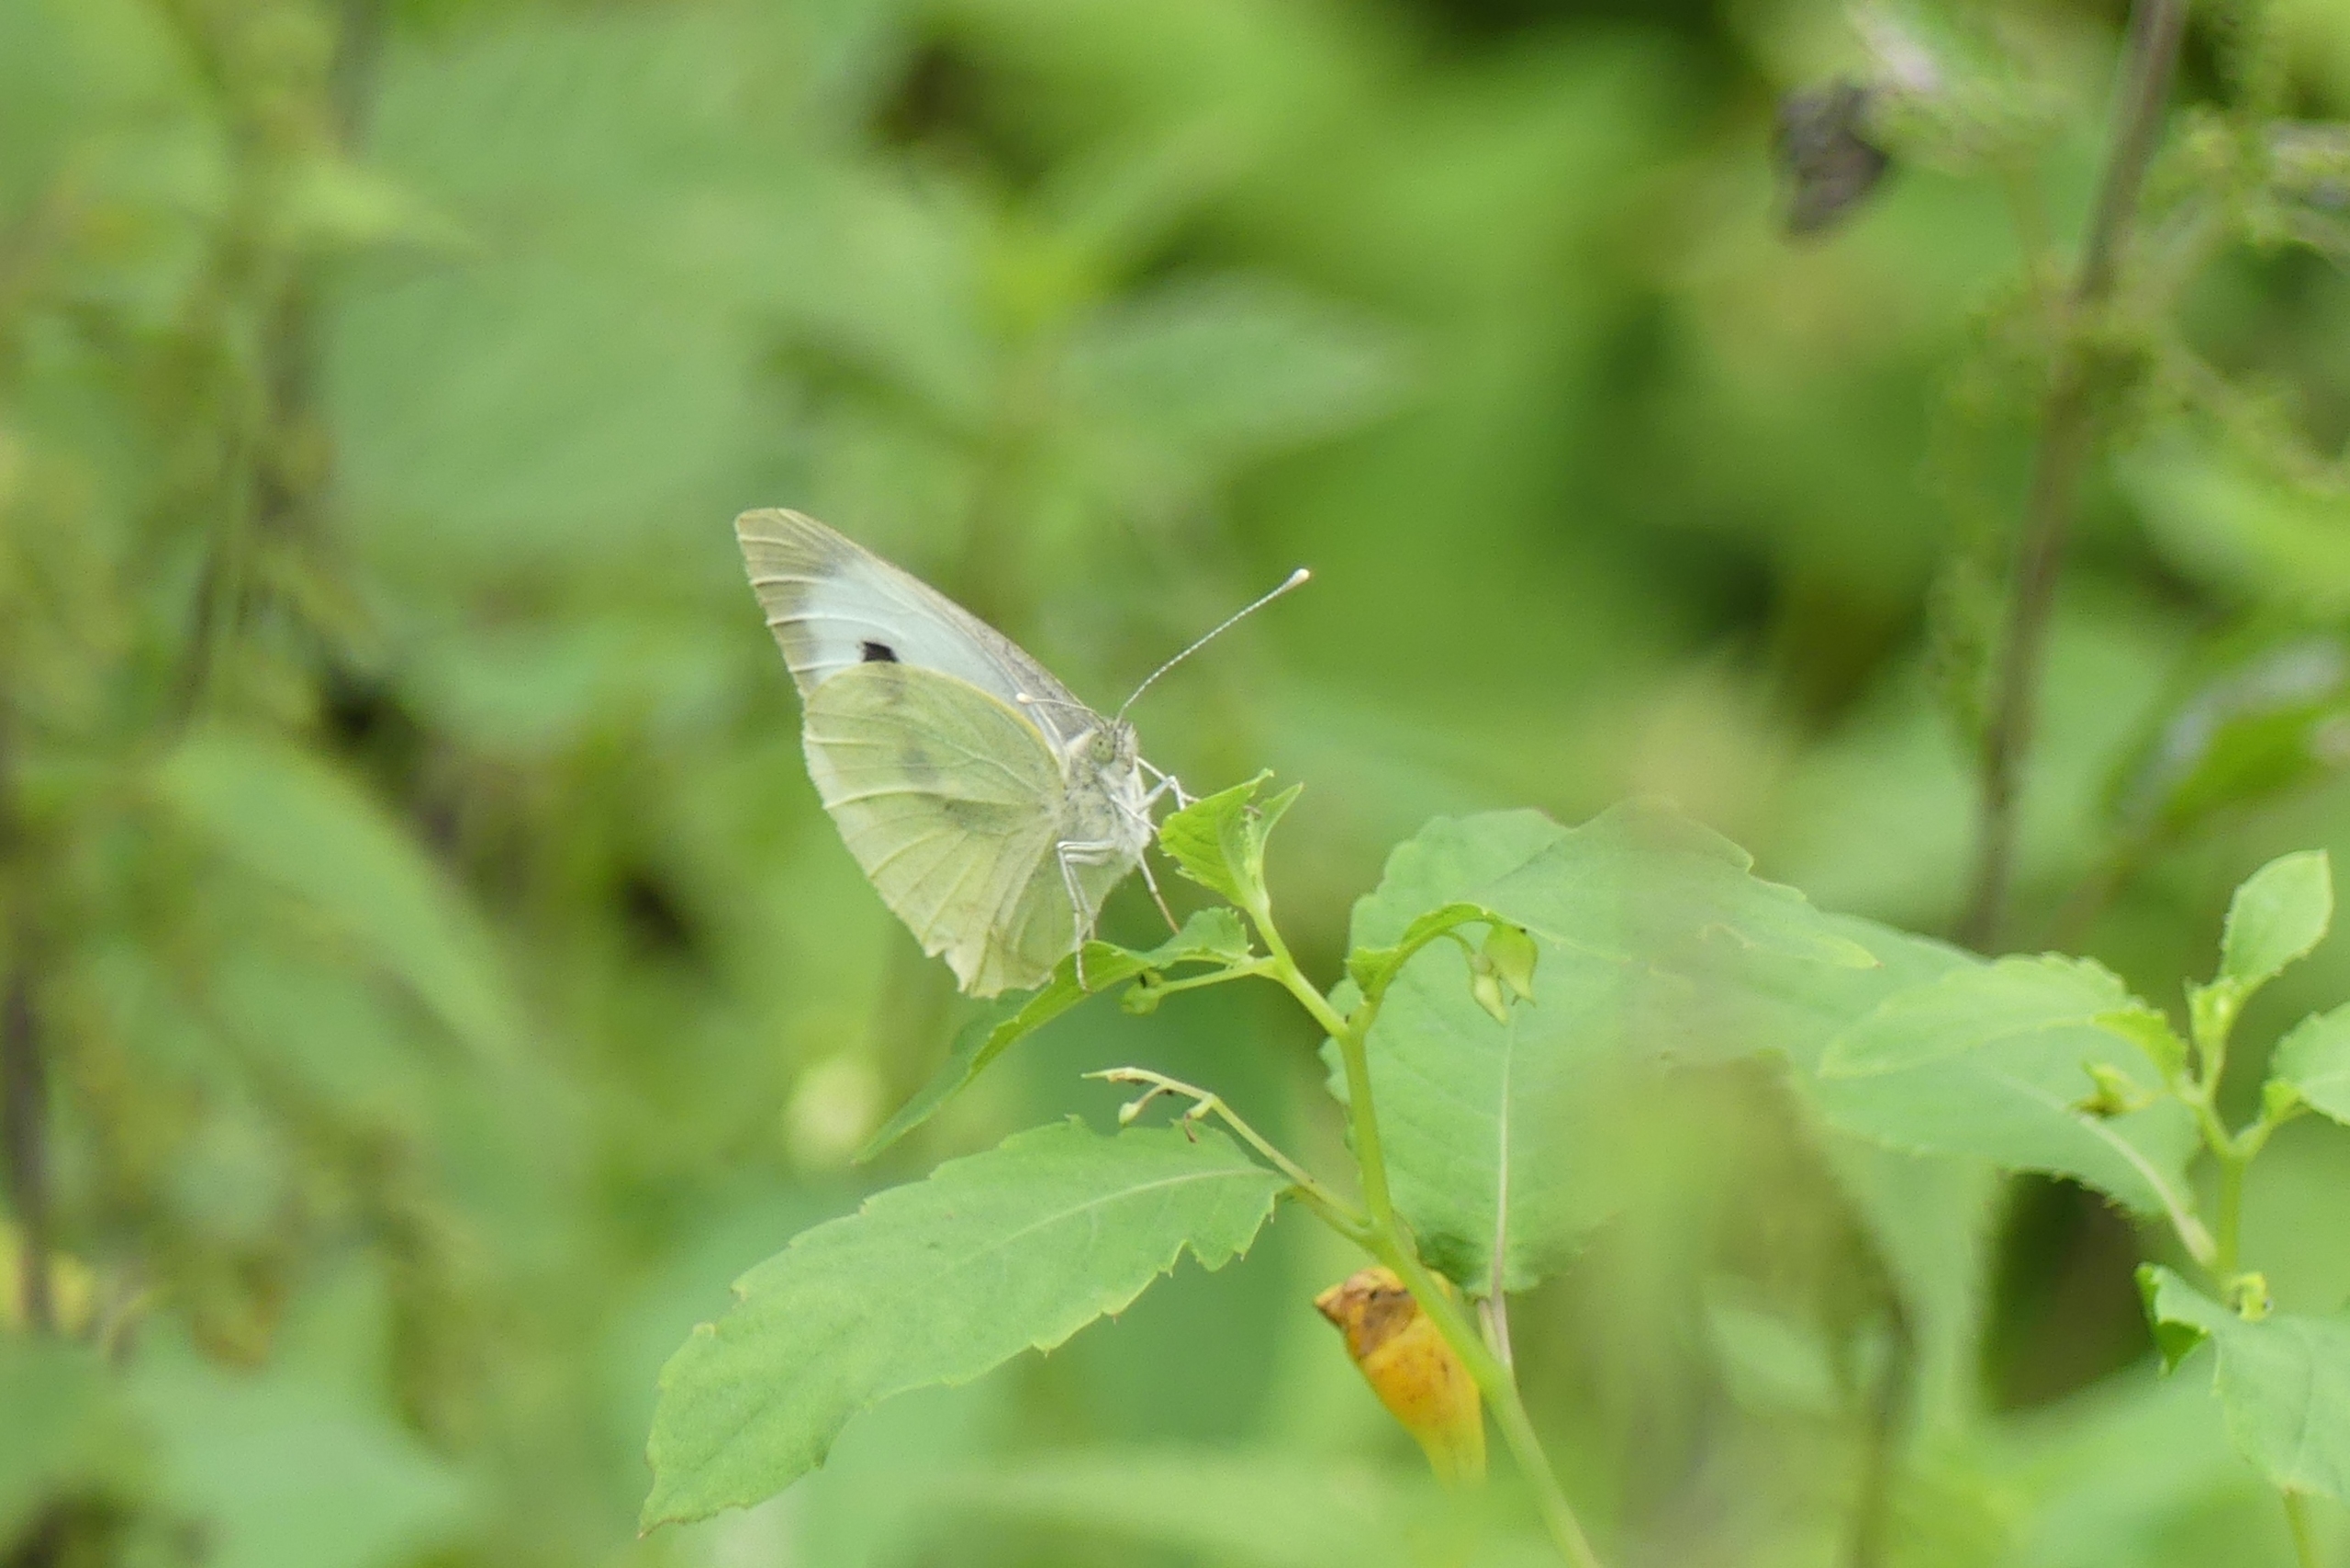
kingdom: Animalia
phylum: Arthropoda
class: Insecta
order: Lepidoptera
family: Pieridae
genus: Pieris
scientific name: Pieris brassicae
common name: Stor kålsommerfugl
